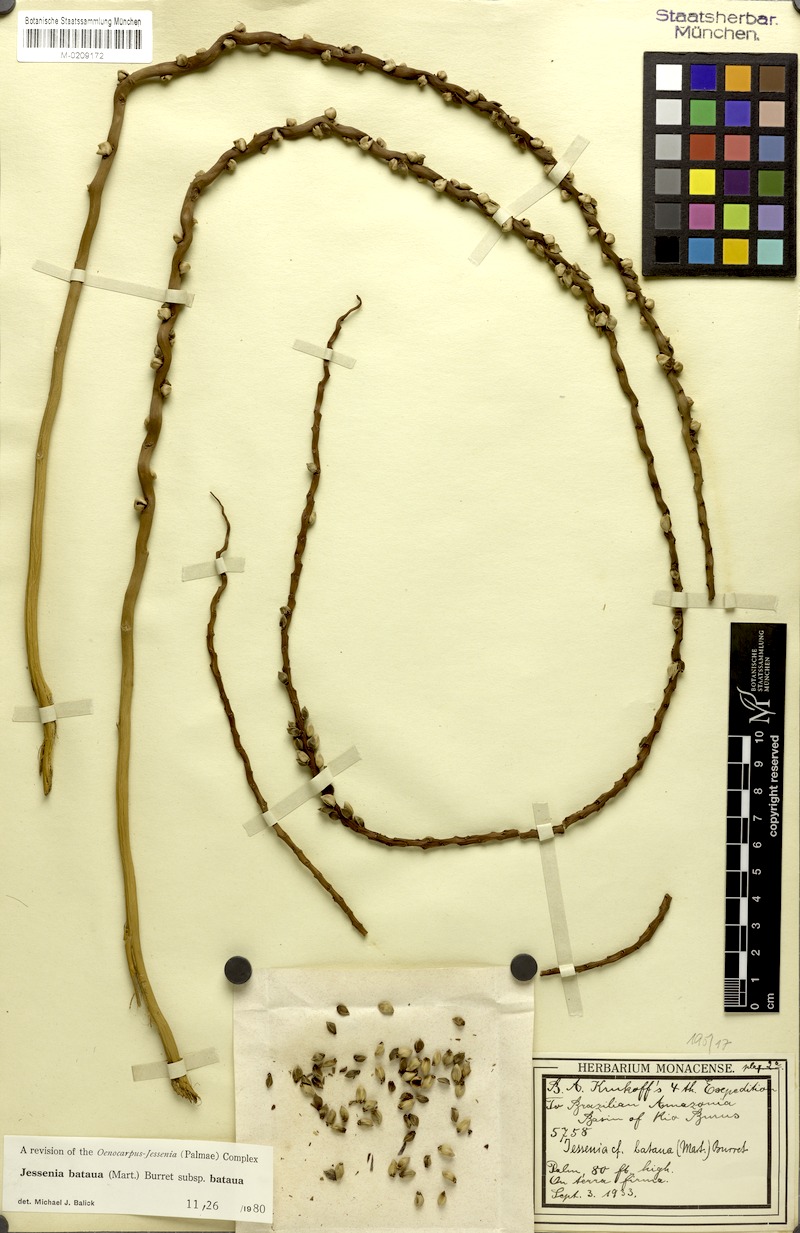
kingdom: Plantae
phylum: Tracheophyta
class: Liliopsida
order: Arecales
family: Arecaceae
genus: Oenocarpus
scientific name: Oenocarpus bataua
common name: Bataua palm
